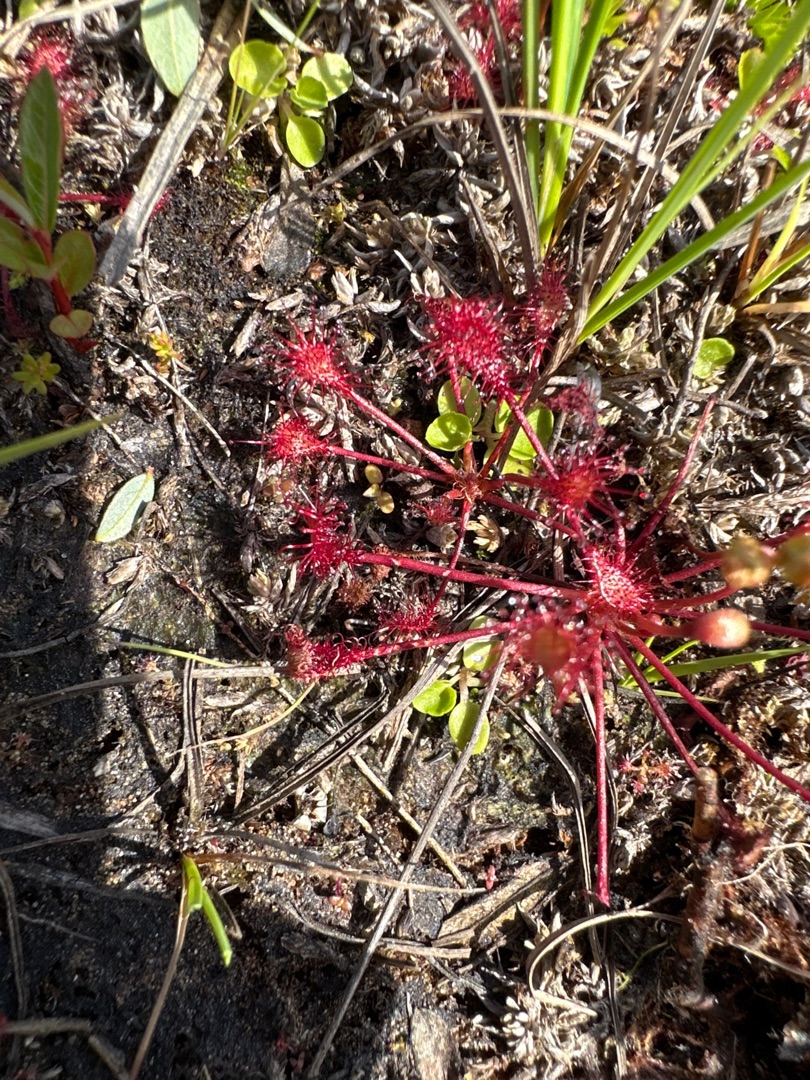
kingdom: Plantae
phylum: Tracheophyta
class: Magnoliopsida
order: Caryophyllales
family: Droseraceae
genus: Drosera
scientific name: Drosera intermedia
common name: Liden soldug
